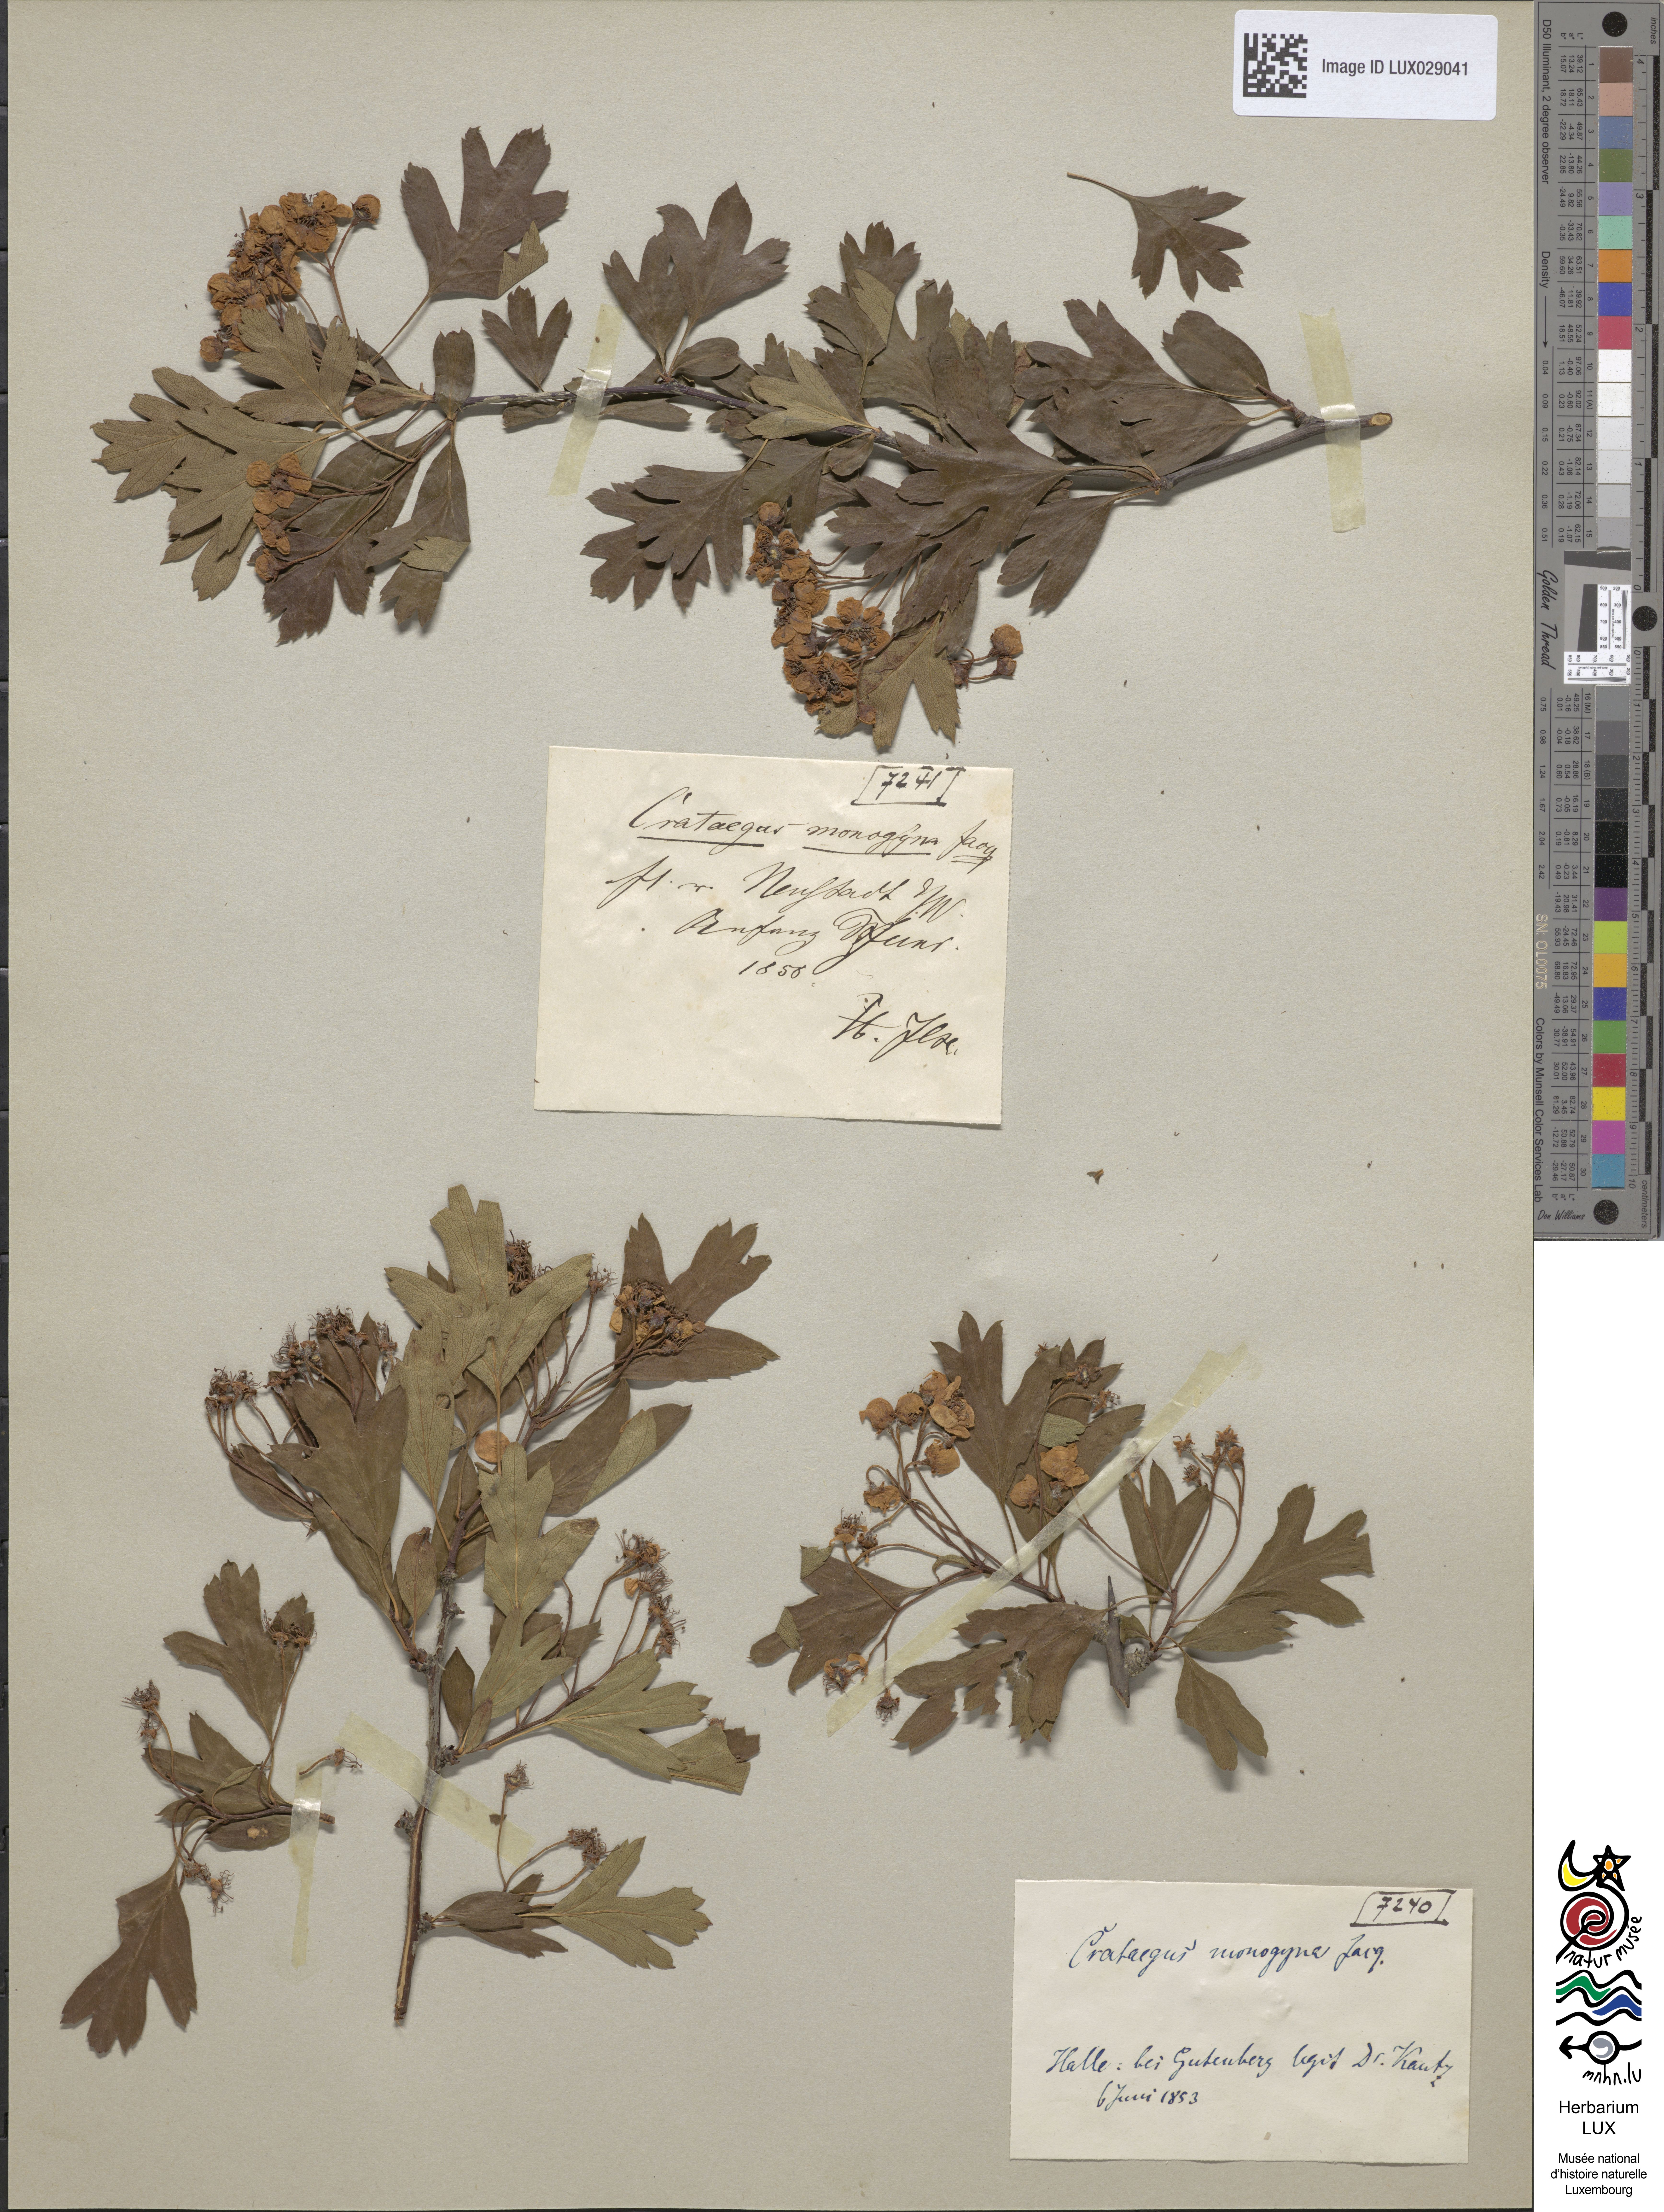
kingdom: Plantae
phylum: Tracheophyta
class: Magnoliopsida
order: Rosales
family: Rosaceae
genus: Crataegus
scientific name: Crataegus monogyna
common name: Hawthorn
